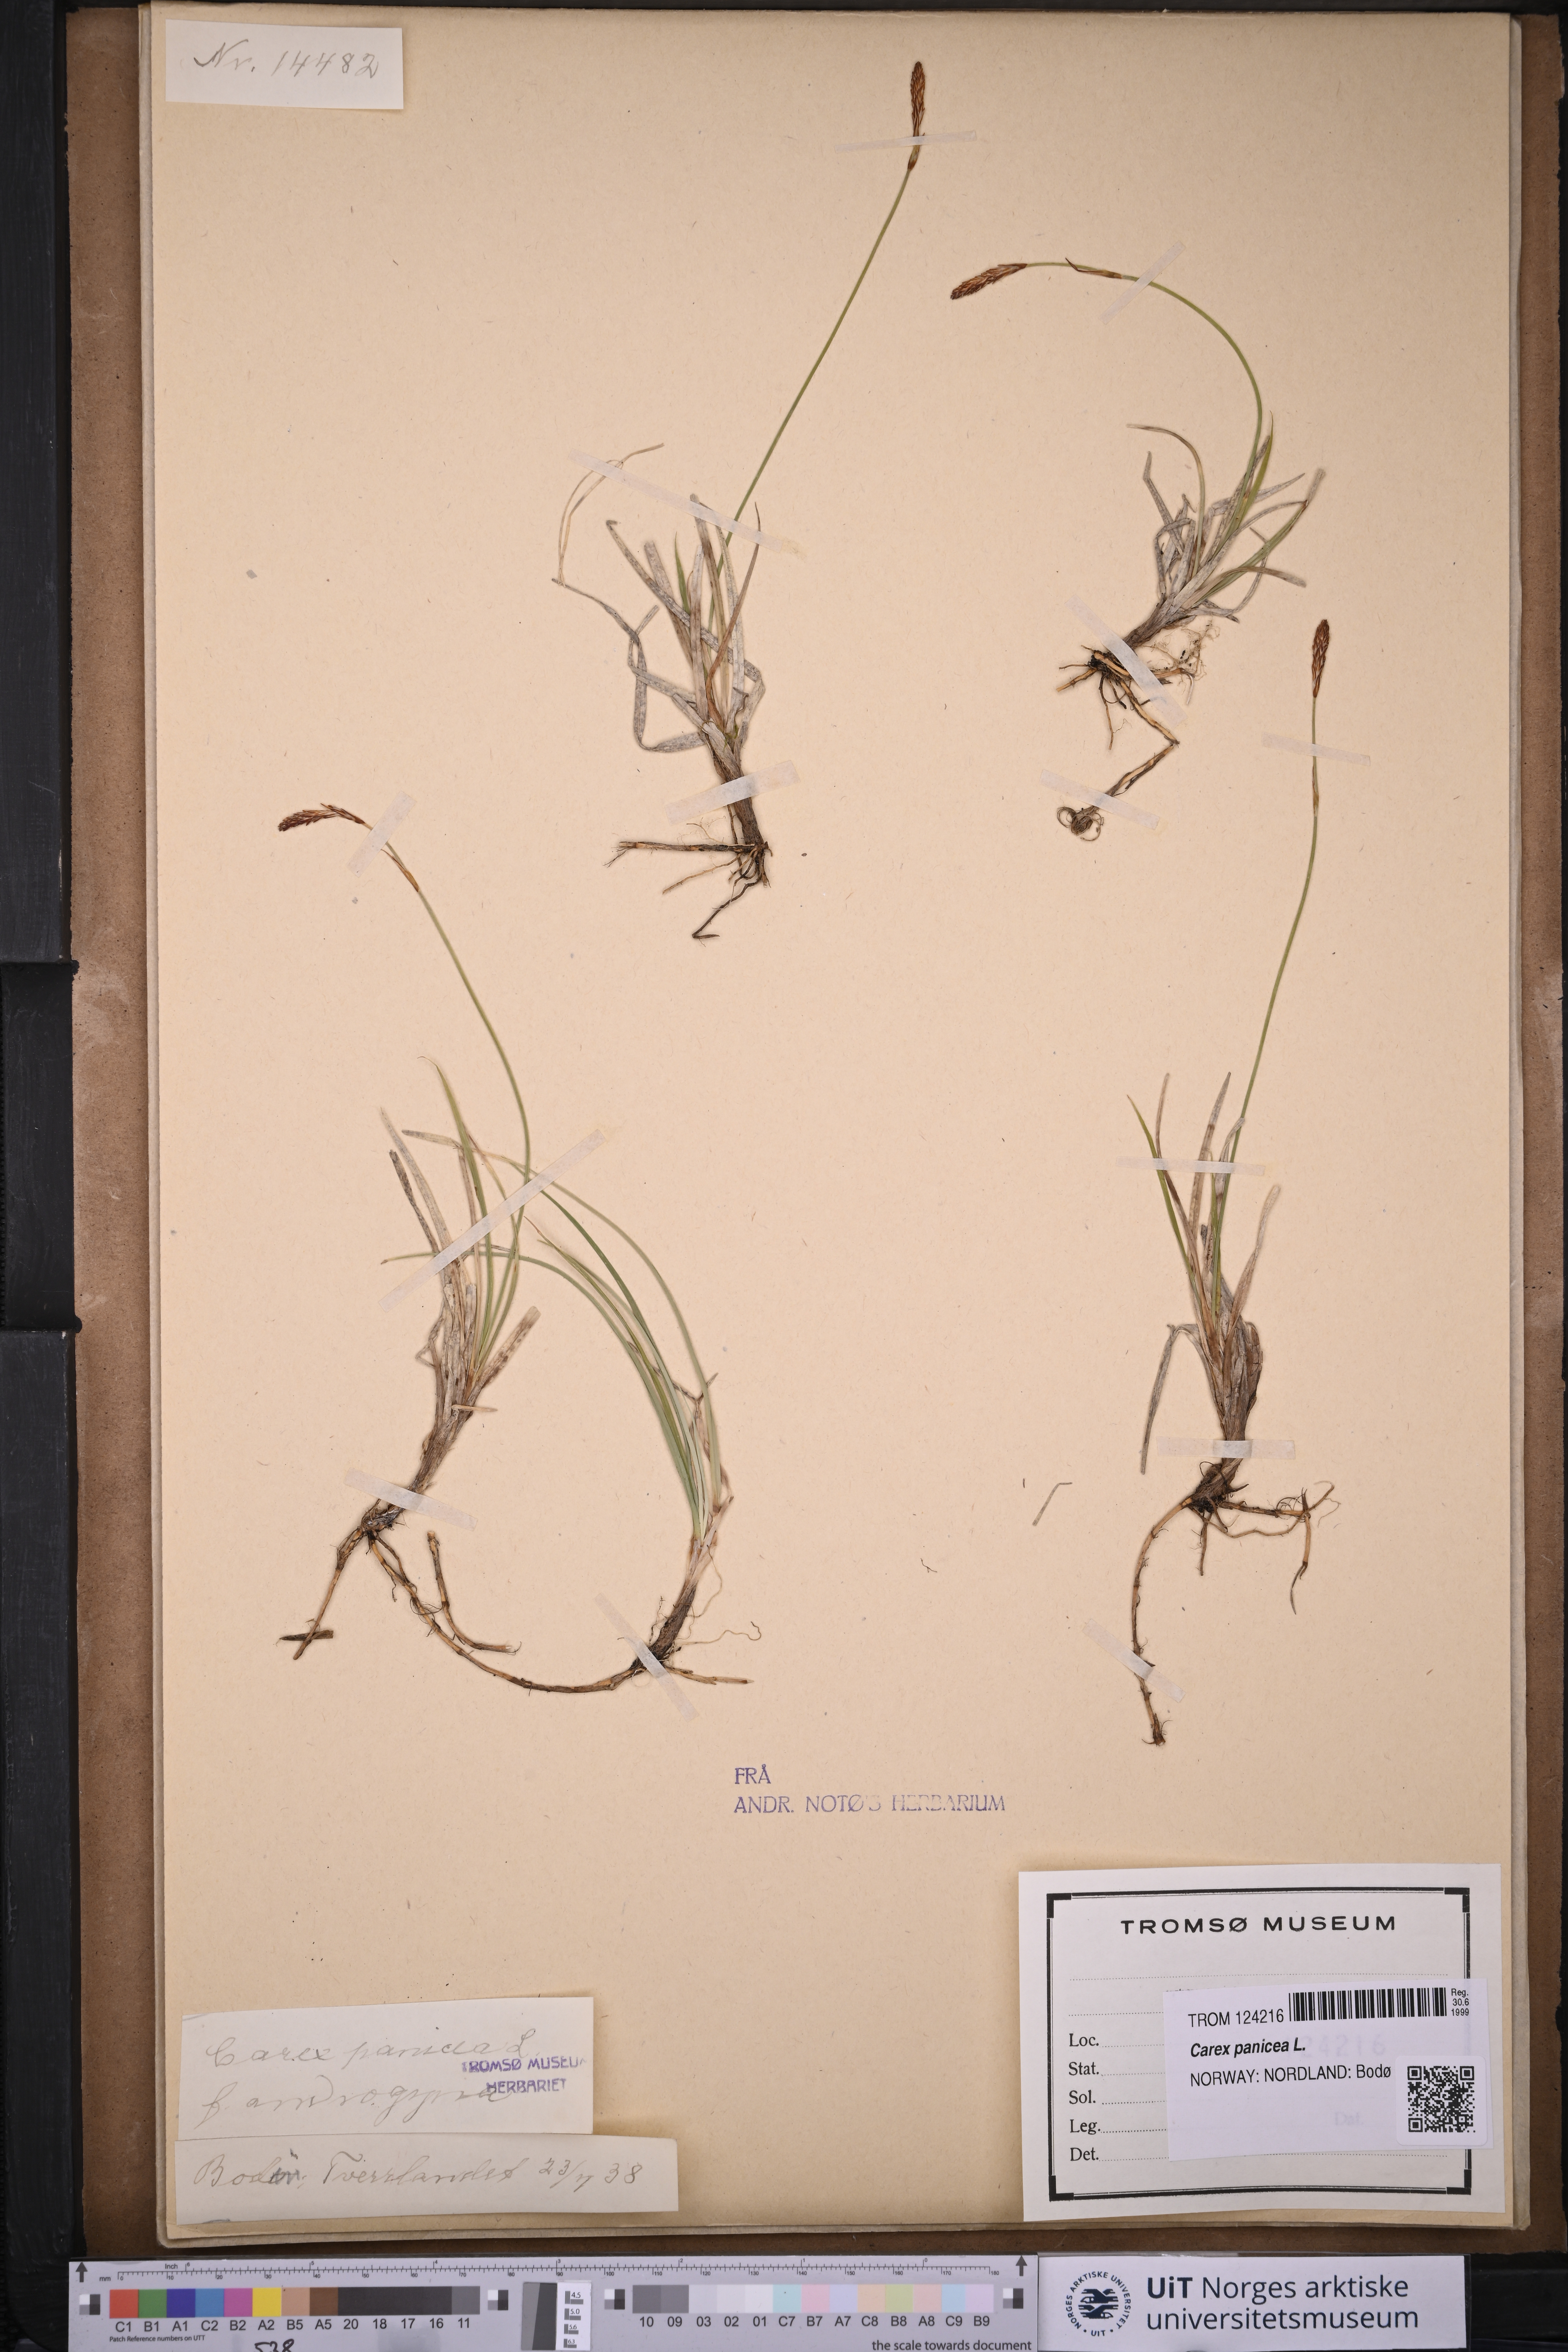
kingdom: Plantae
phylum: Tracheophyta
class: Liliopsida
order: Poales
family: Cyperaceae
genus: Carex
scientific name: Carex panicea
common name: Carnation sedge
